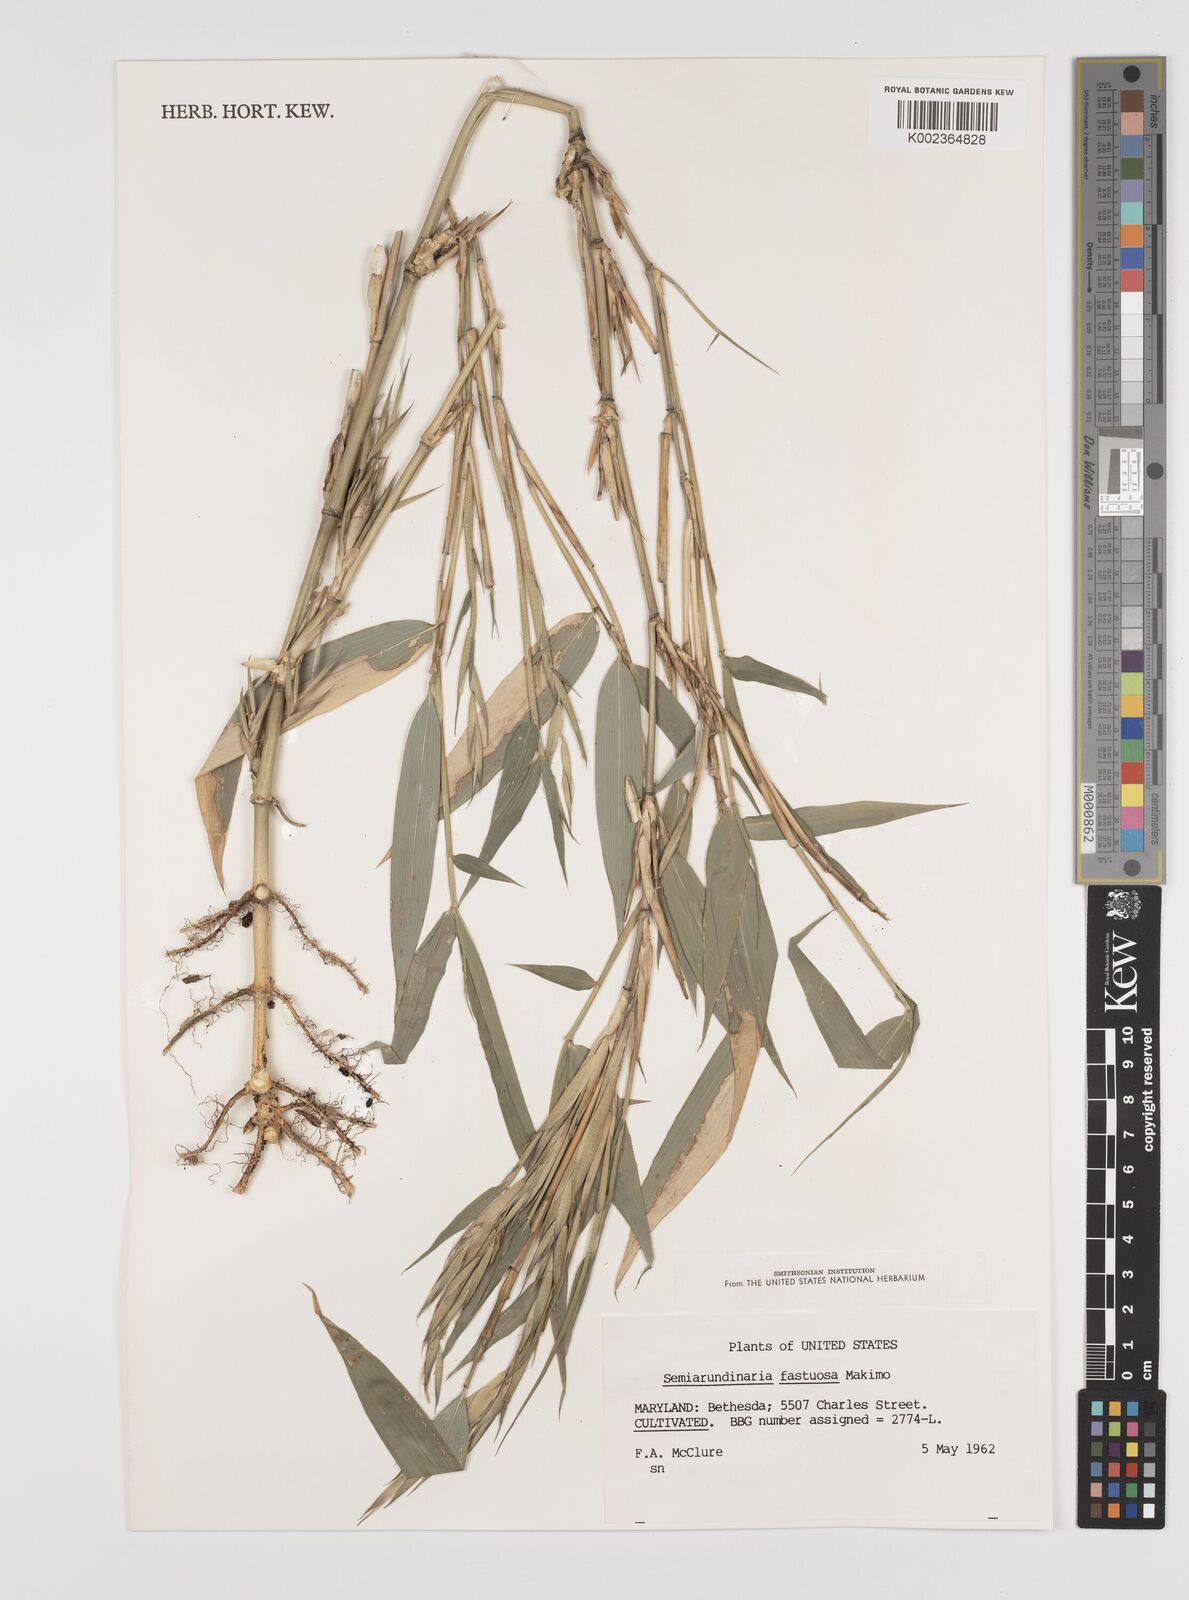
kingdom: Plantae
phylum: Tracheophyta
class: Liliopsida
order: Poales
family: Poaceae
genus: Semiarundinaria
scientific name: Semiarundinaria fastuosa
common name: Narihira bamboo
